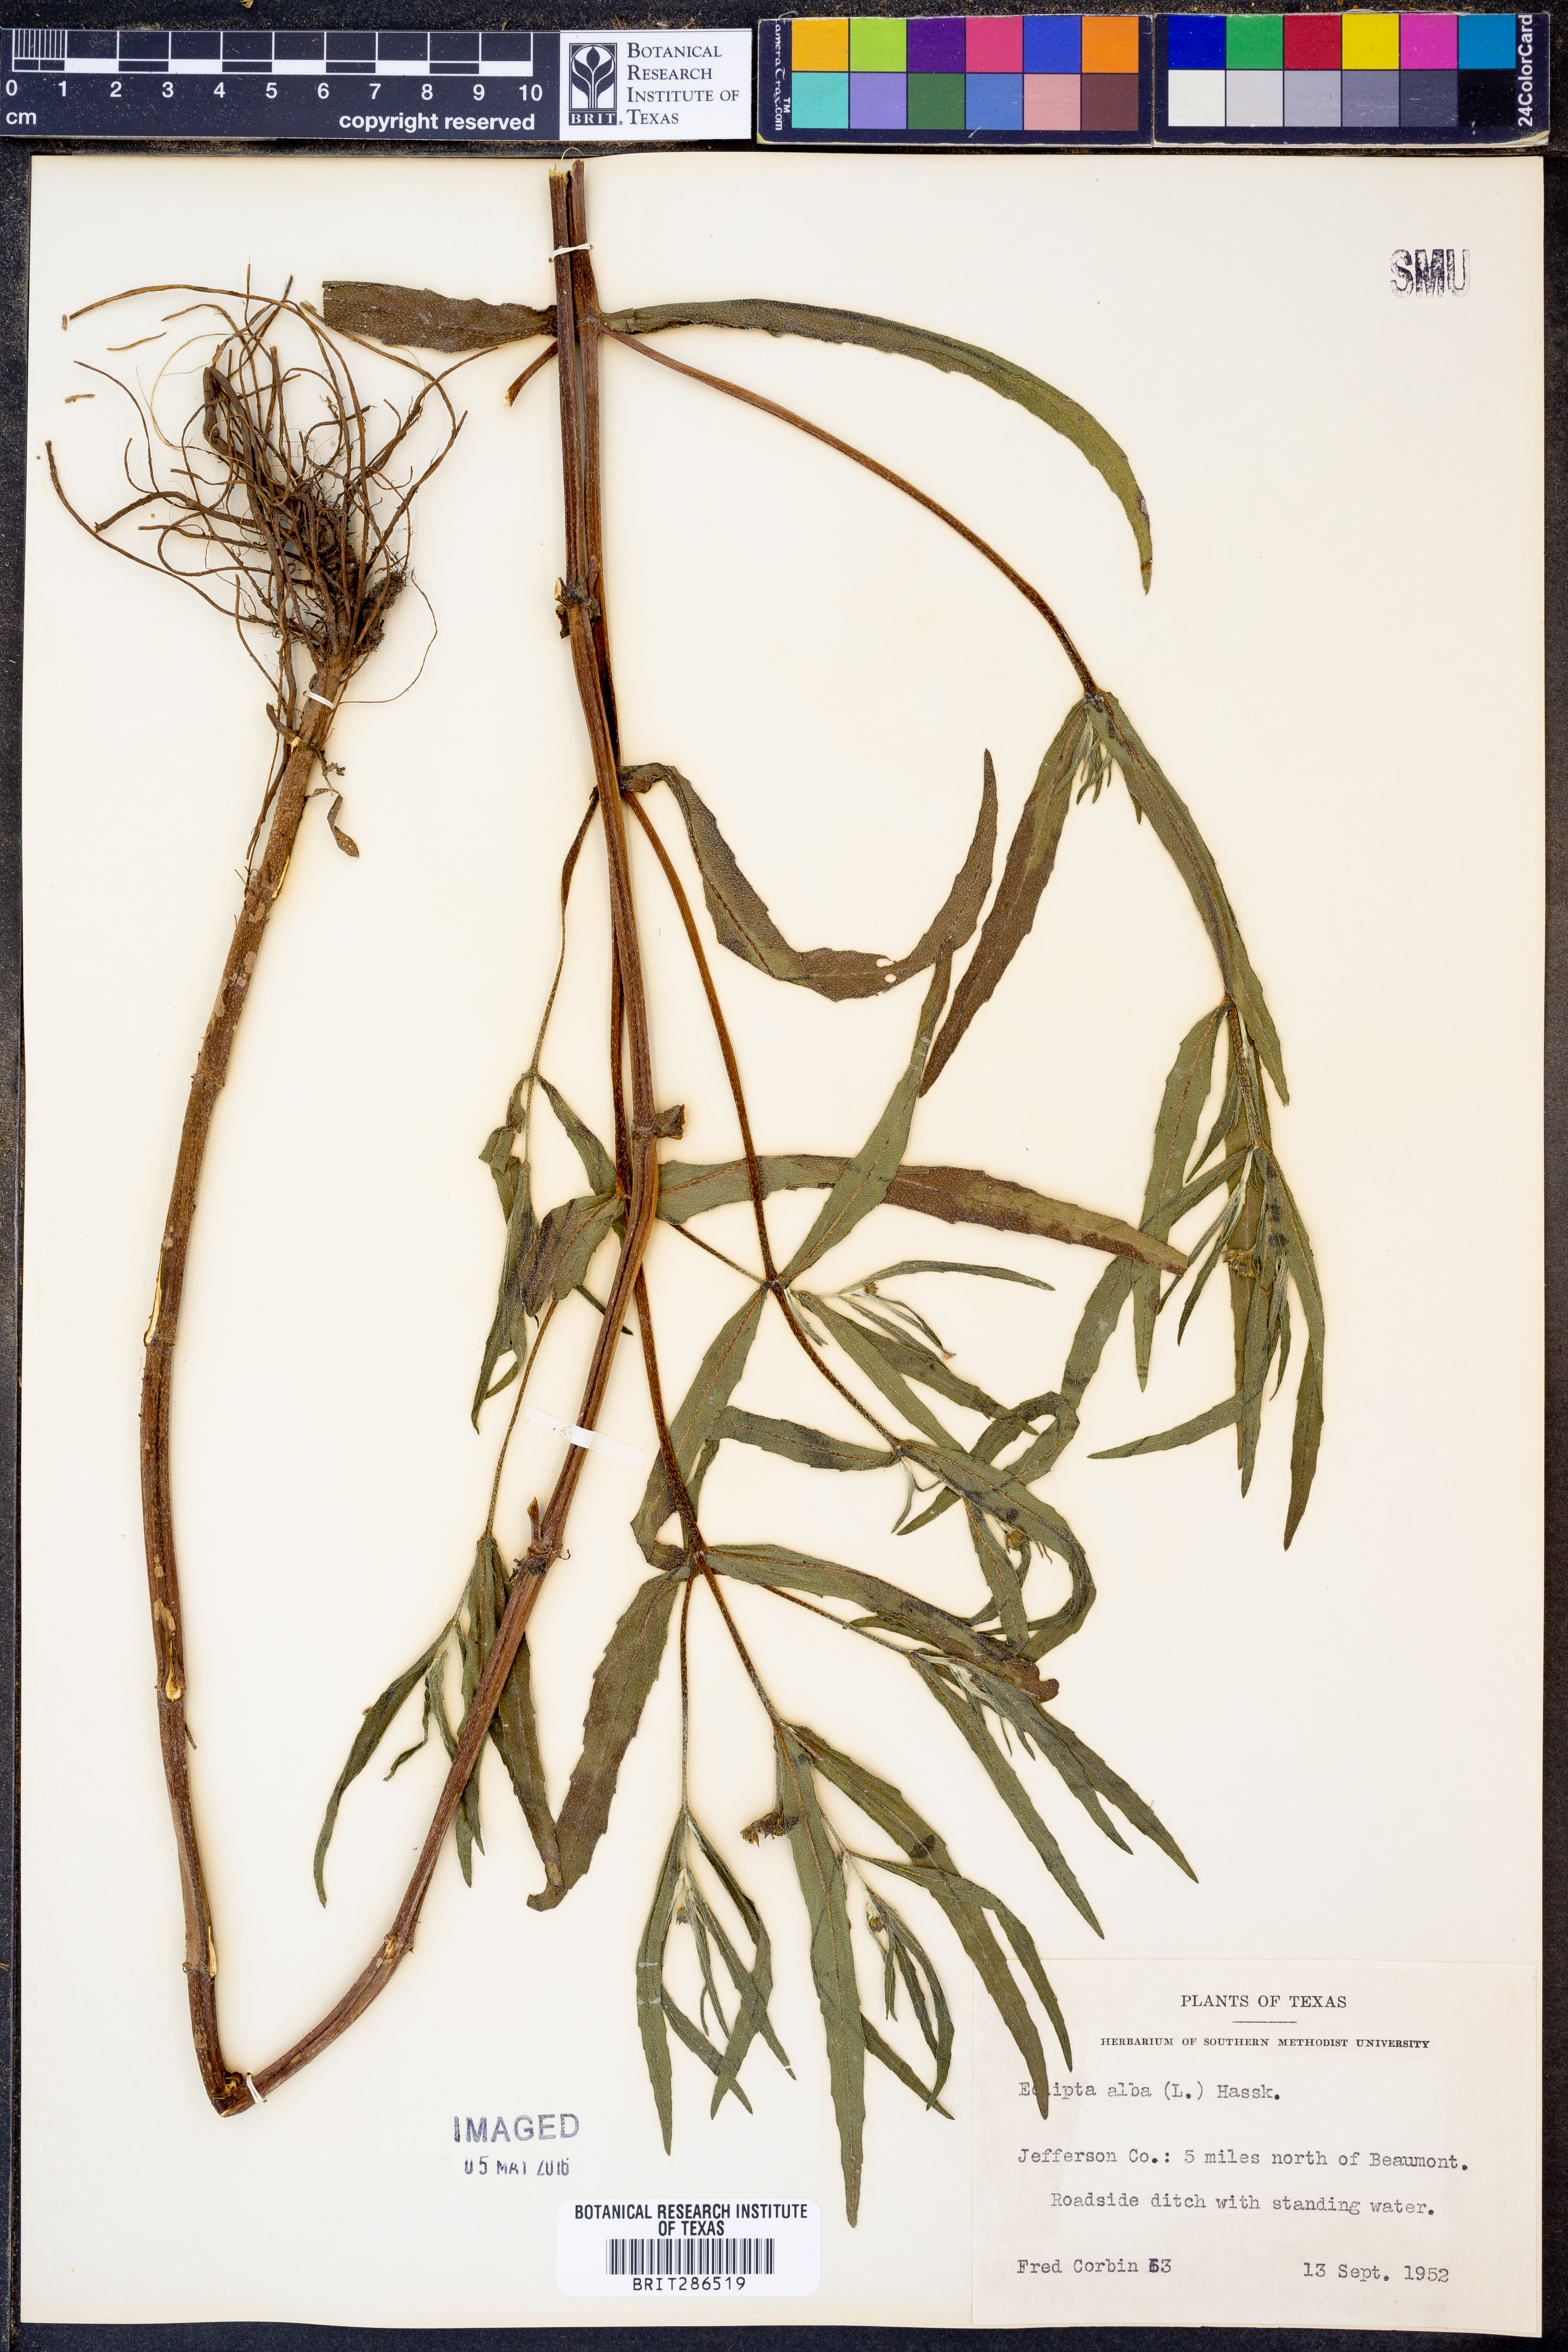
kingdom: Plantae
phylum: Tracheophyta
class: Magnoliopsida
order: Asterales
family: Asteraceae
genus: Eclipta
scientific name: Eclipta alba
